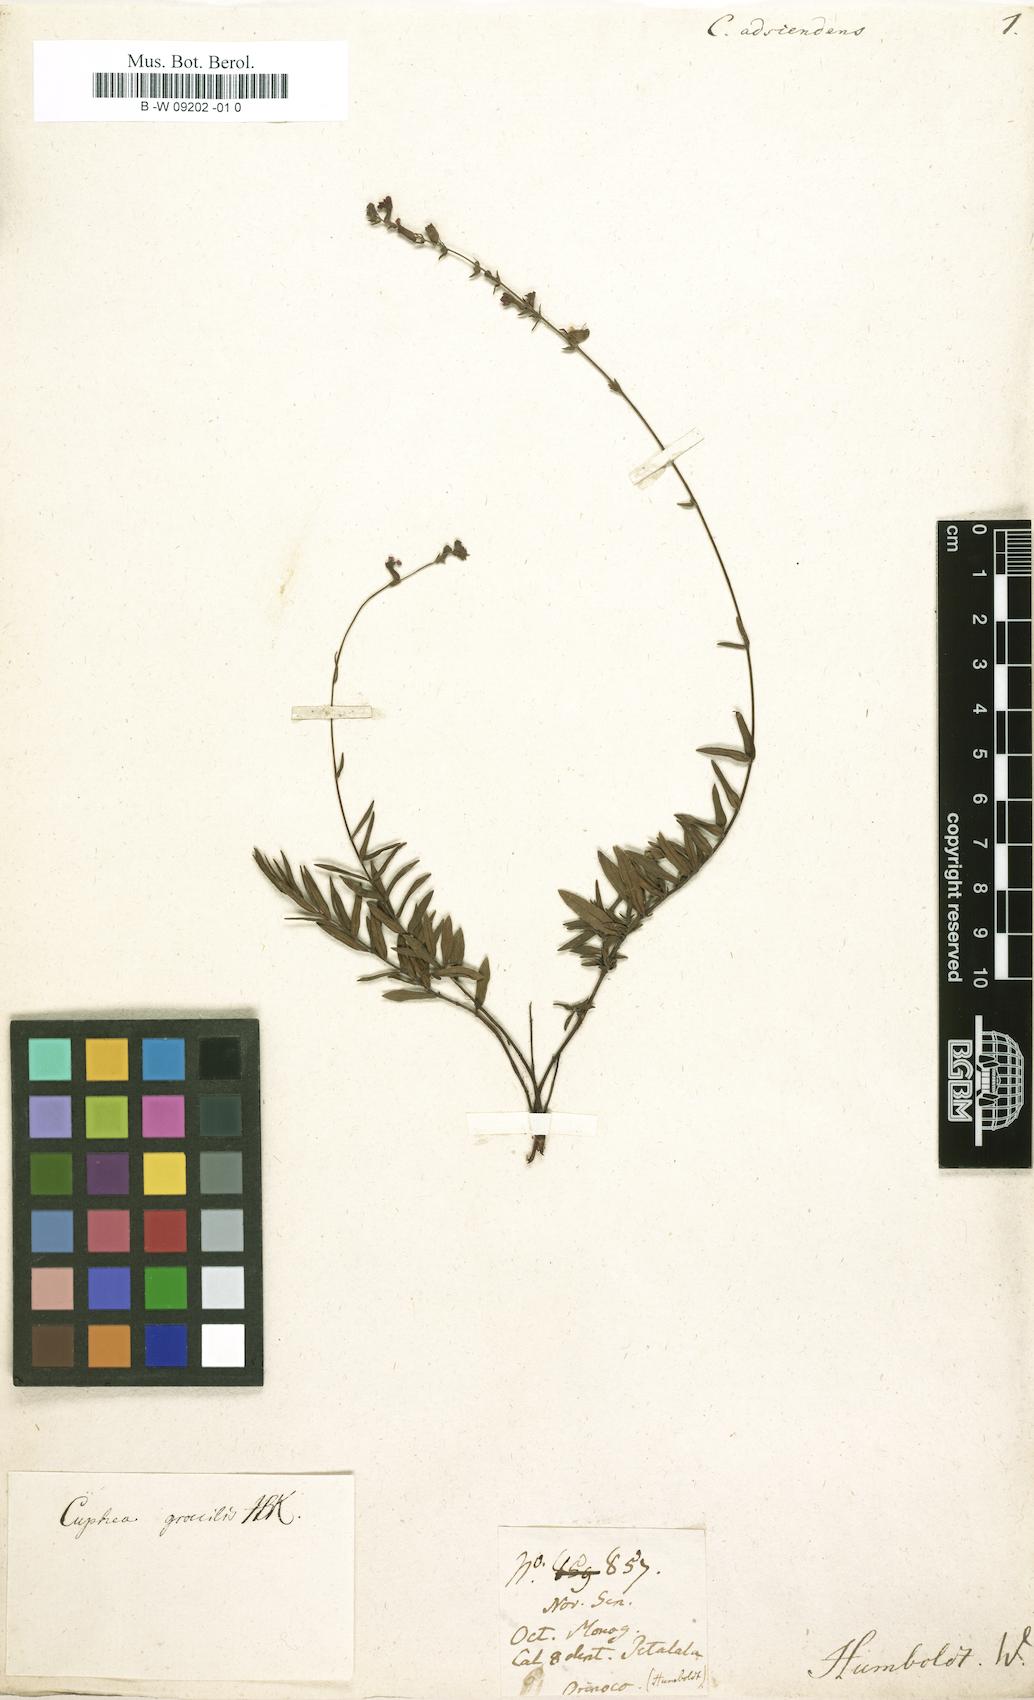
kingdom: Plantae
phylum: Tracheophyta
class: Magnoliopsida
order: Myrtales
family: Lythraceae
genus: Cuphea
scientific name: Cuphea
